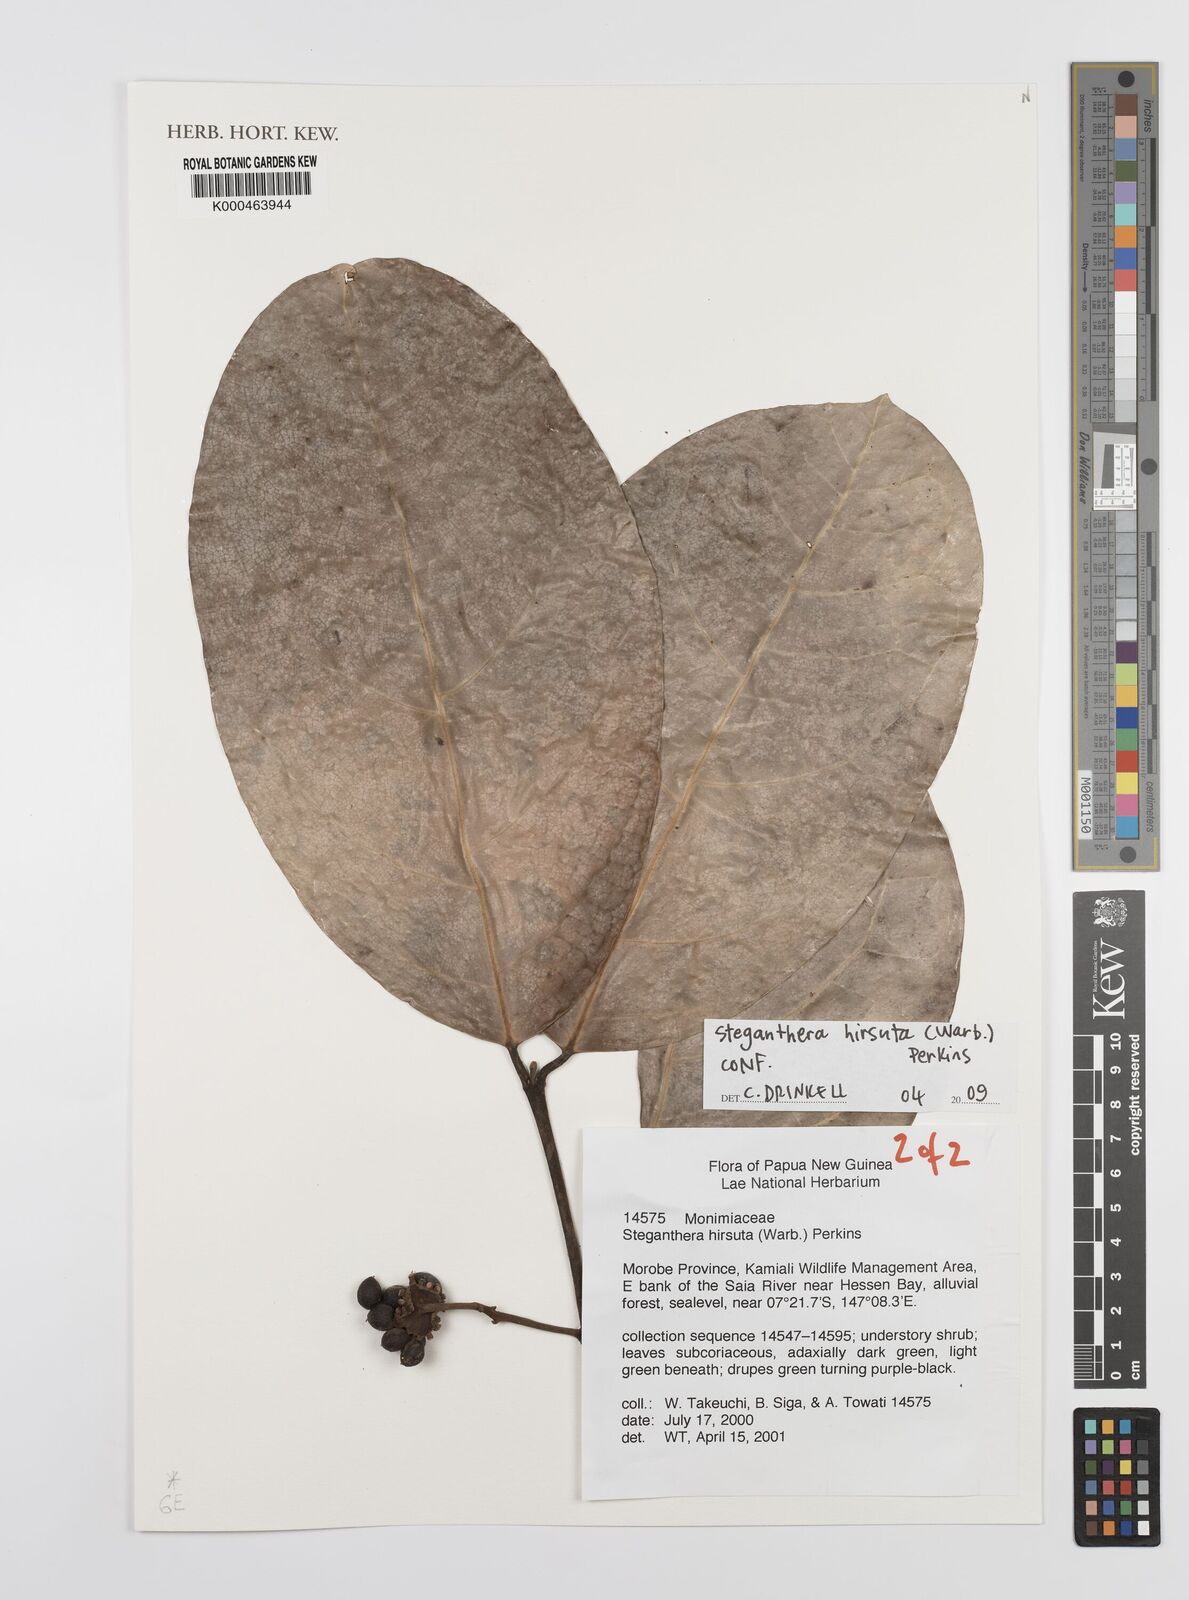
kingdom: Plantae
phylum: Tracheophyta
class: Magnoliopsida
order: Laurales
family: Monimiaceae
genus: Steganthera
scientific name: Steganthera hirsuta
